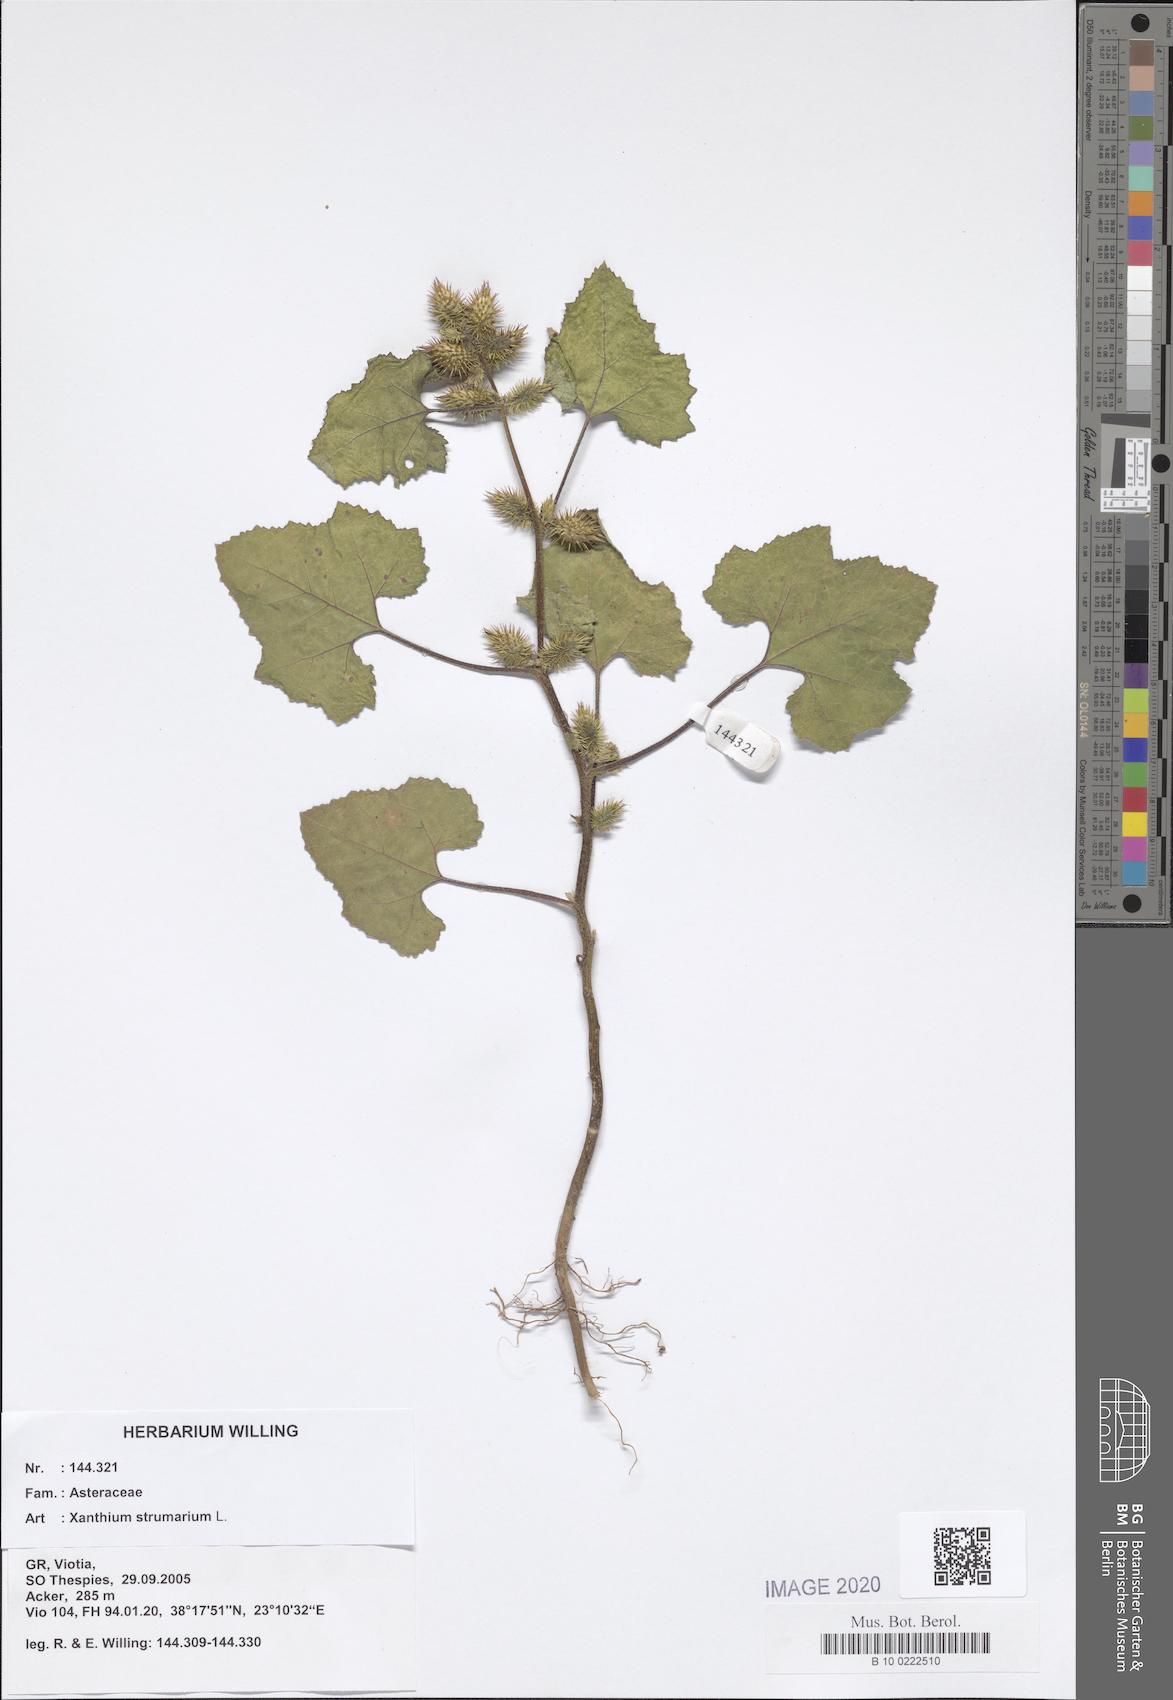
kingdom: Plantae
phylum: Tracheophyta
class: Magnoliopsida
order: Asterales
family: Asteraceae
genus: Xanthium
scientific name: Xanthium strumarium
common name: Rough cocklebur
